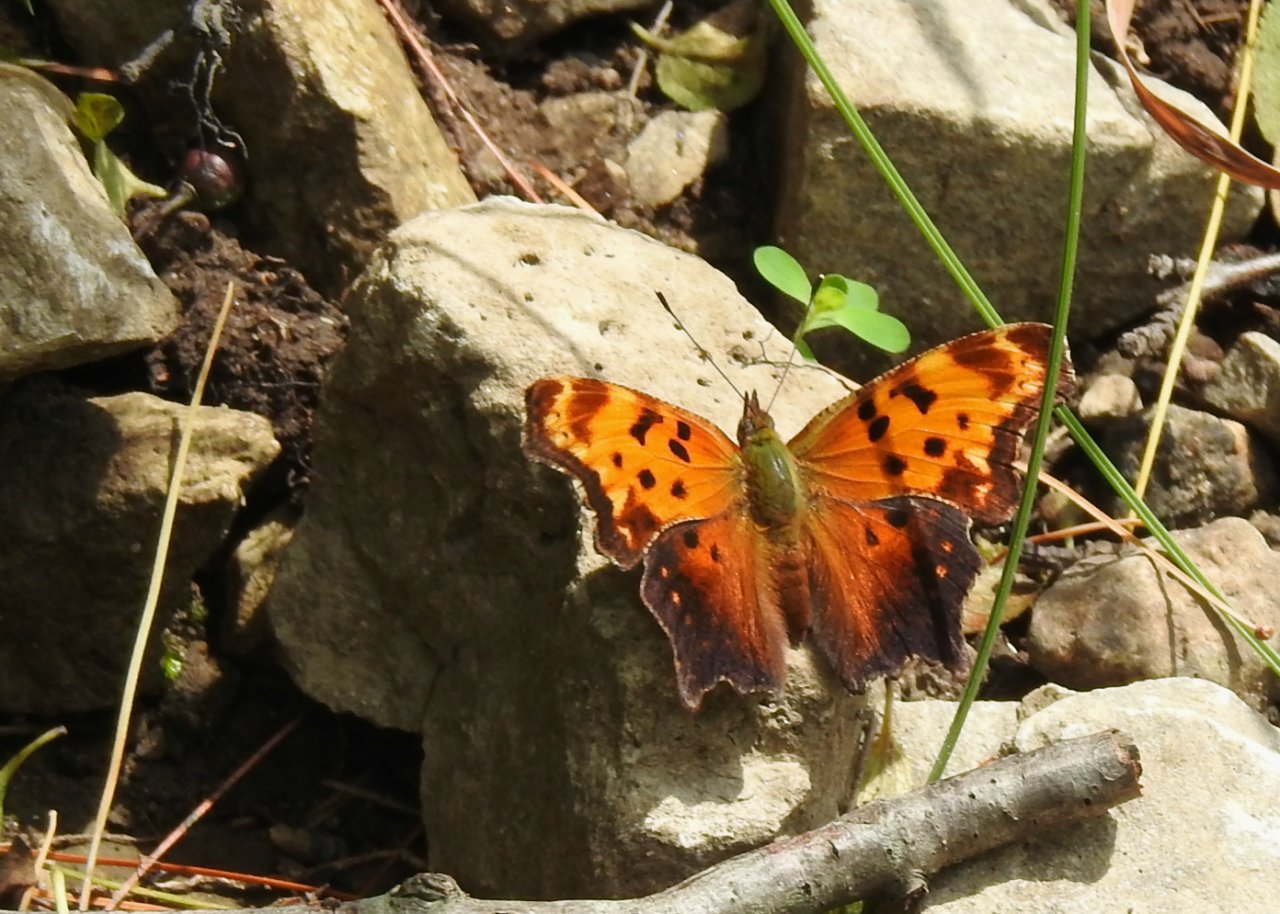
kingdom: Animalia
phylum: Arthropoda
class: Insecta
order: Lepidoptera
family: Nymphalidae
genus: Polygonia
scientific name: Polygonia progne
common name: Gray Comma
